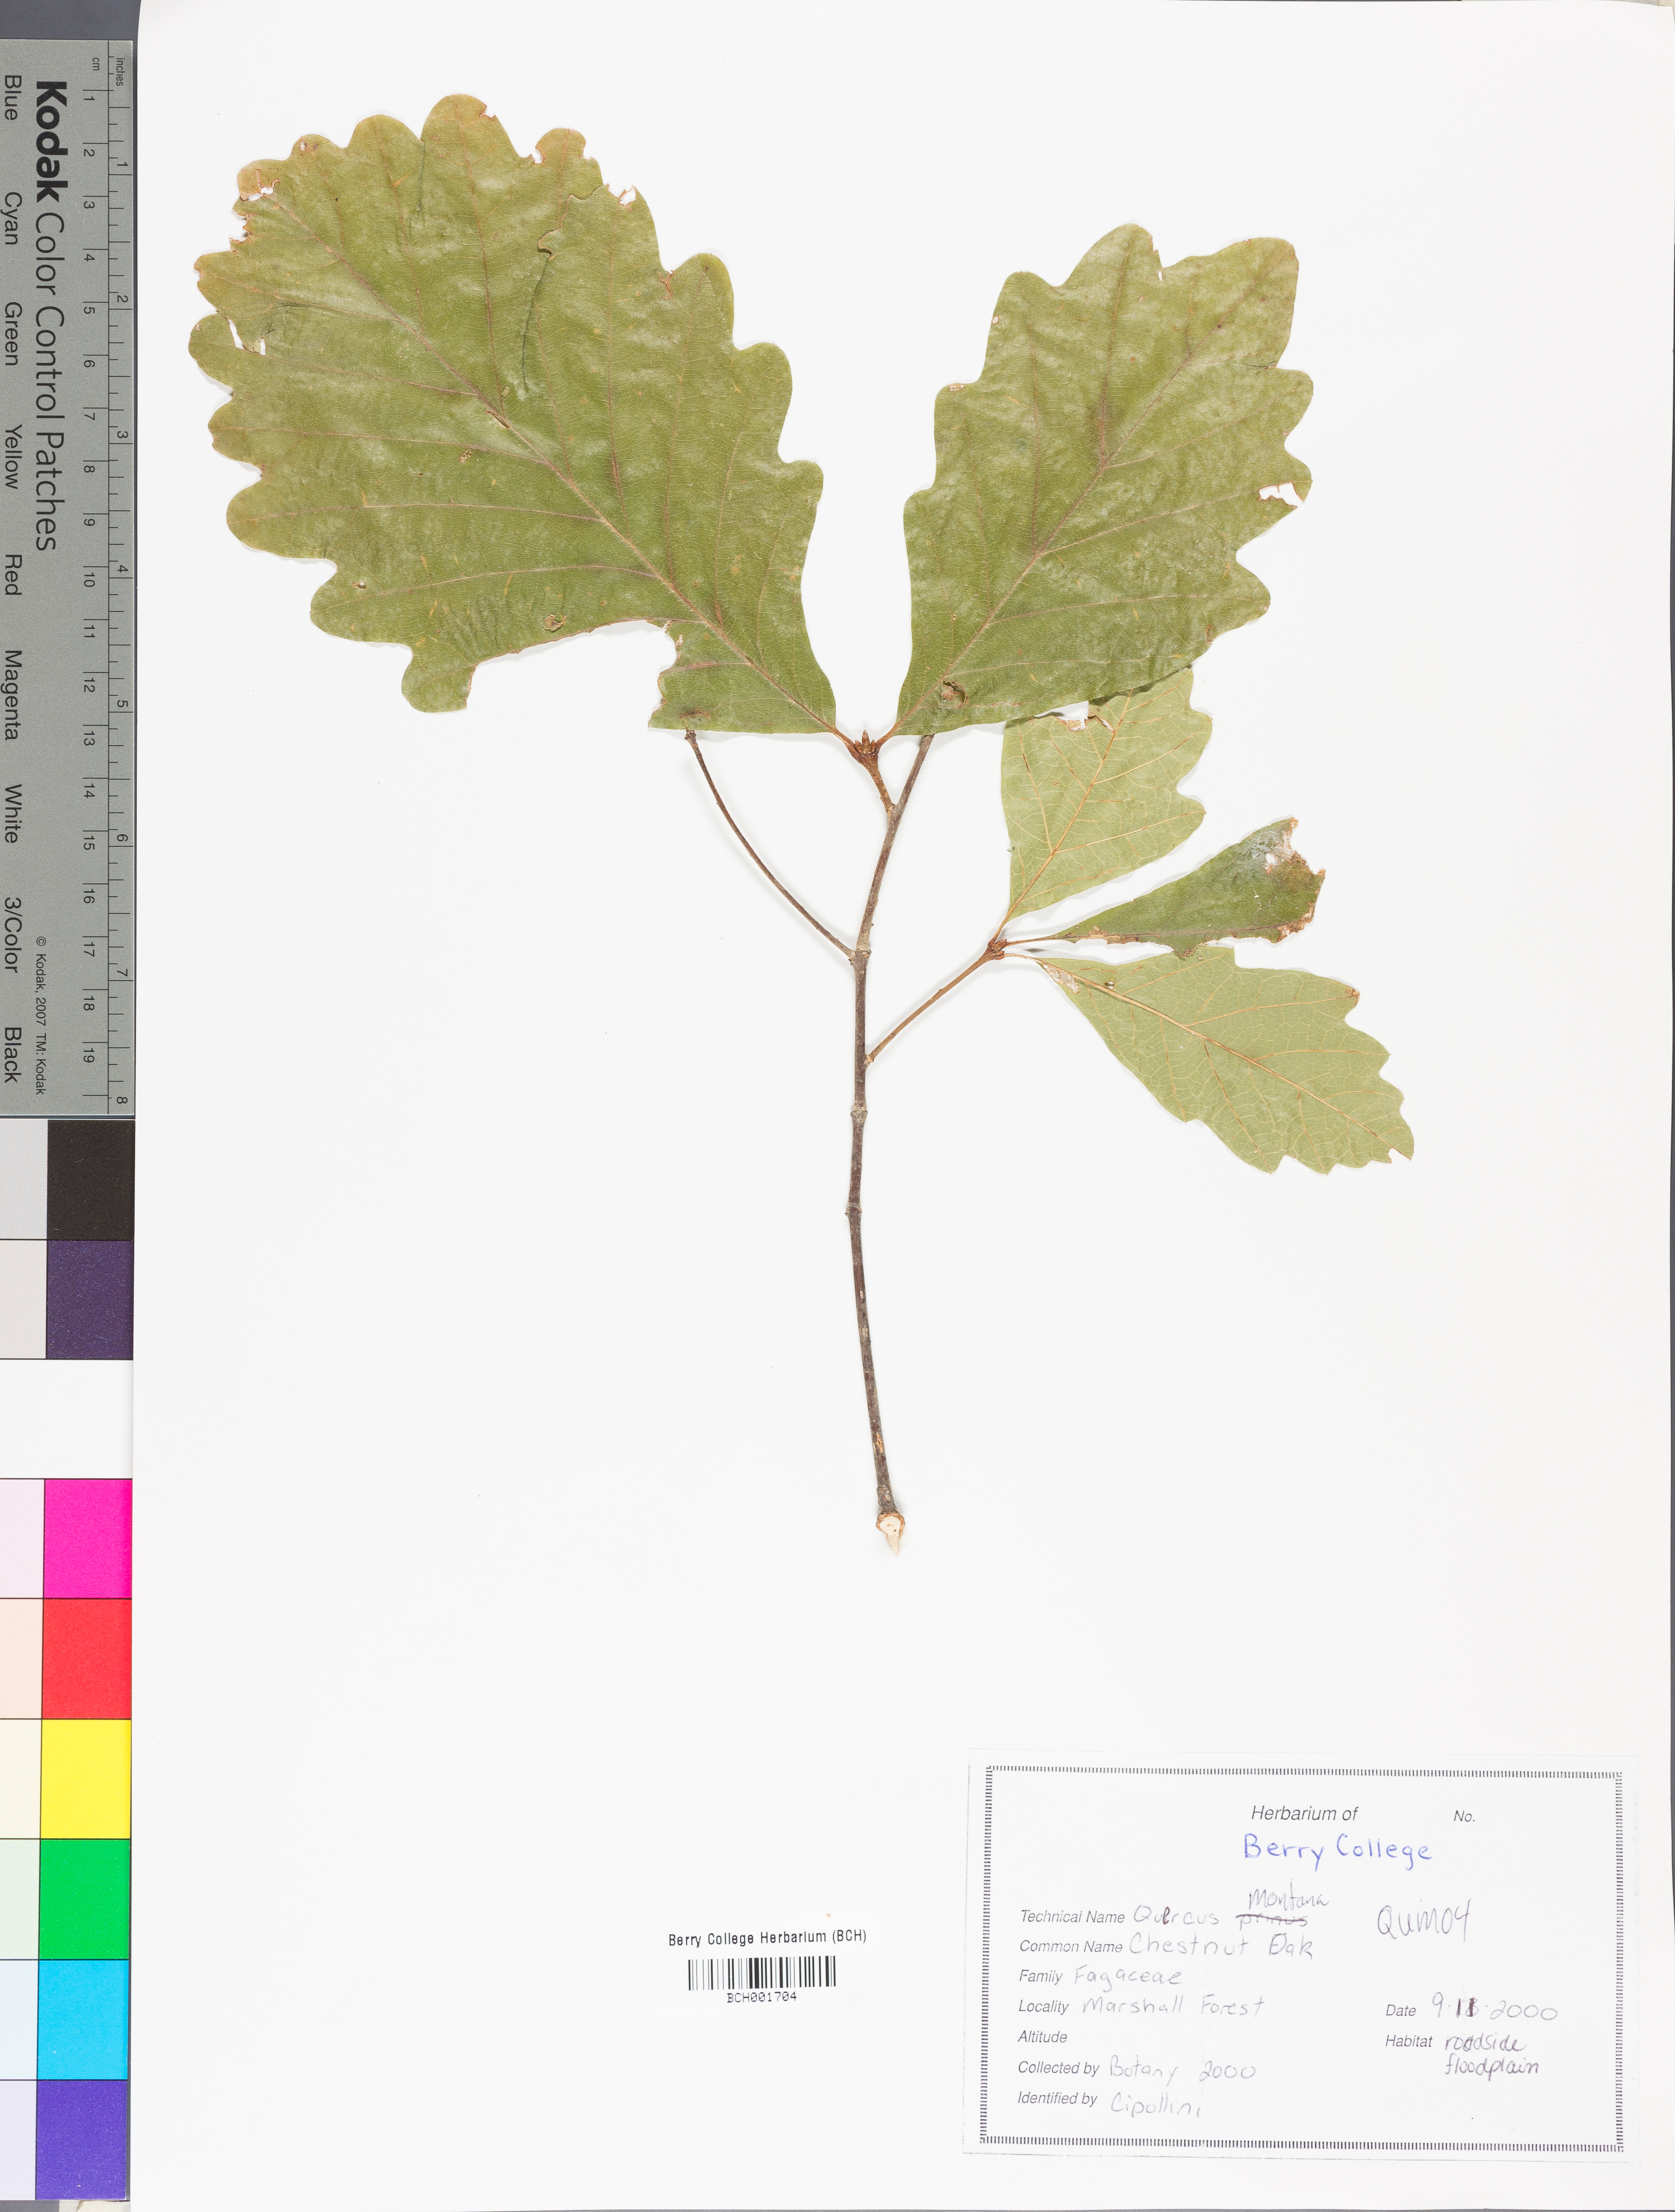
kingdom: Plantae
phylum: Tracheophyta
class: Magnoliopsida
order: Fagales
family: Fagaceae
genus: Quercus
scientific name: Quercus montana
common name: Chestnut oak
